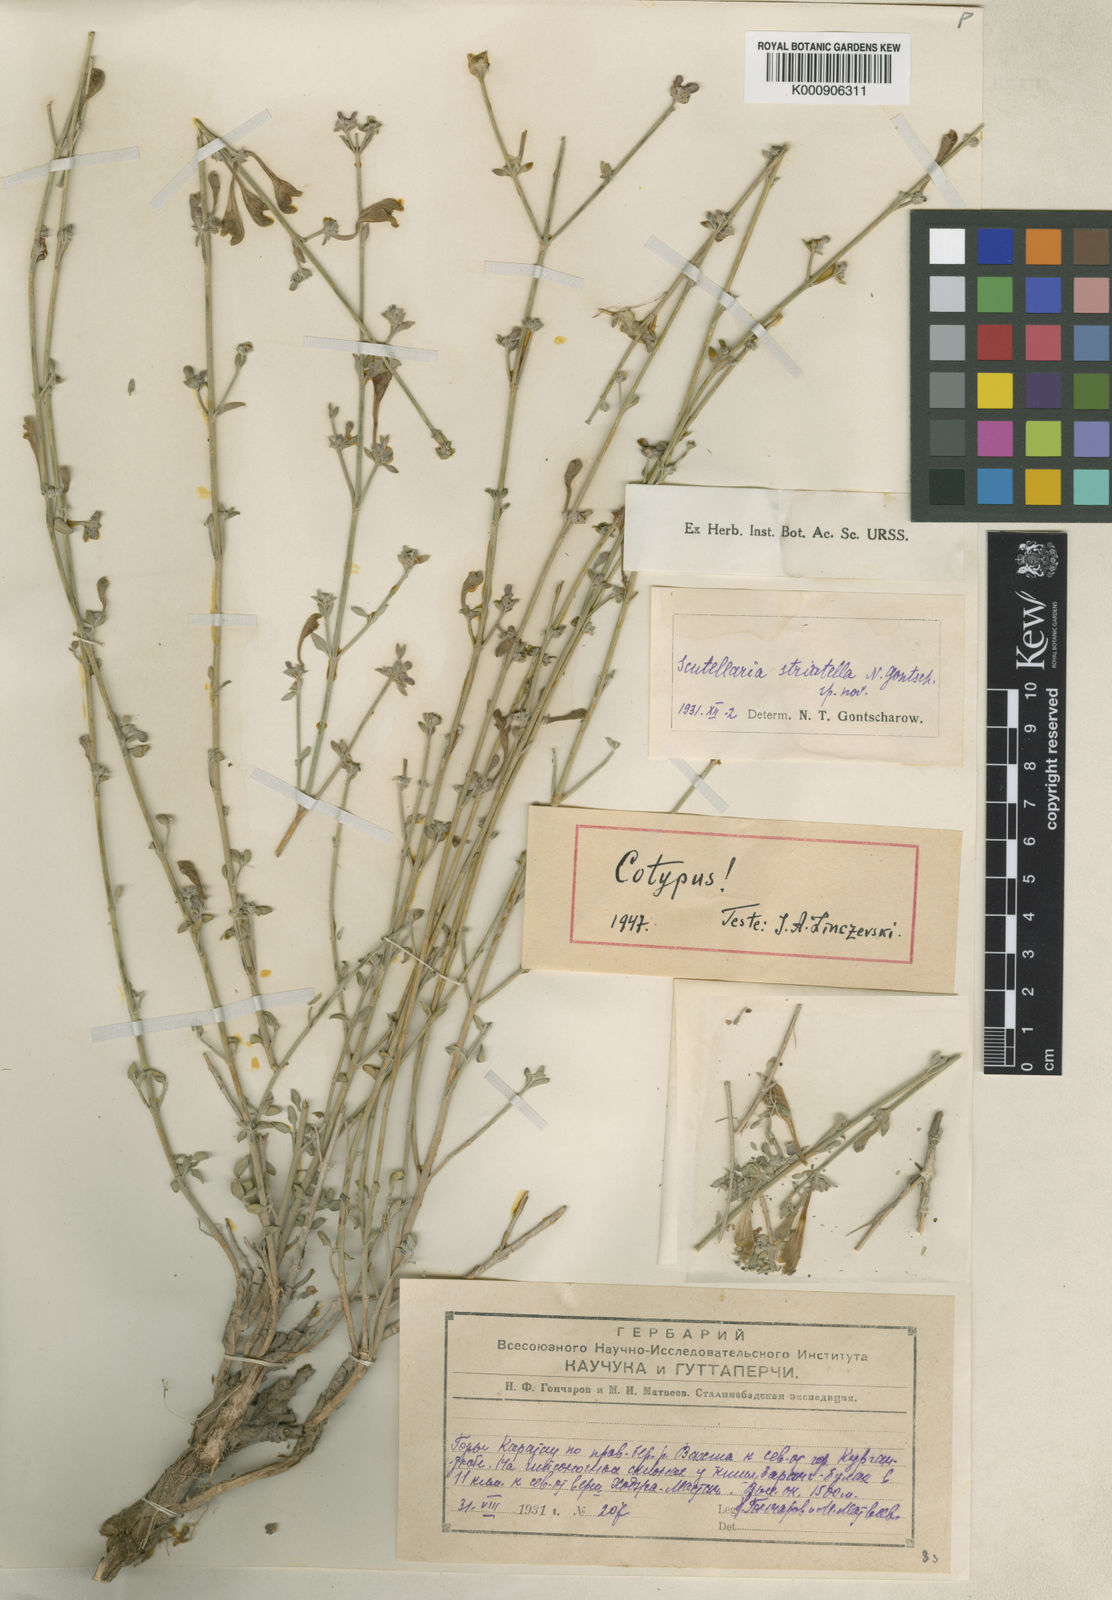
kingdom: Plantae
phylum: Tracheophyta
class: Magnoliopsida
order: Lamiales
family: Lamiaceae
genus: Scutellaria
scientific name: Scutellaria striatella
